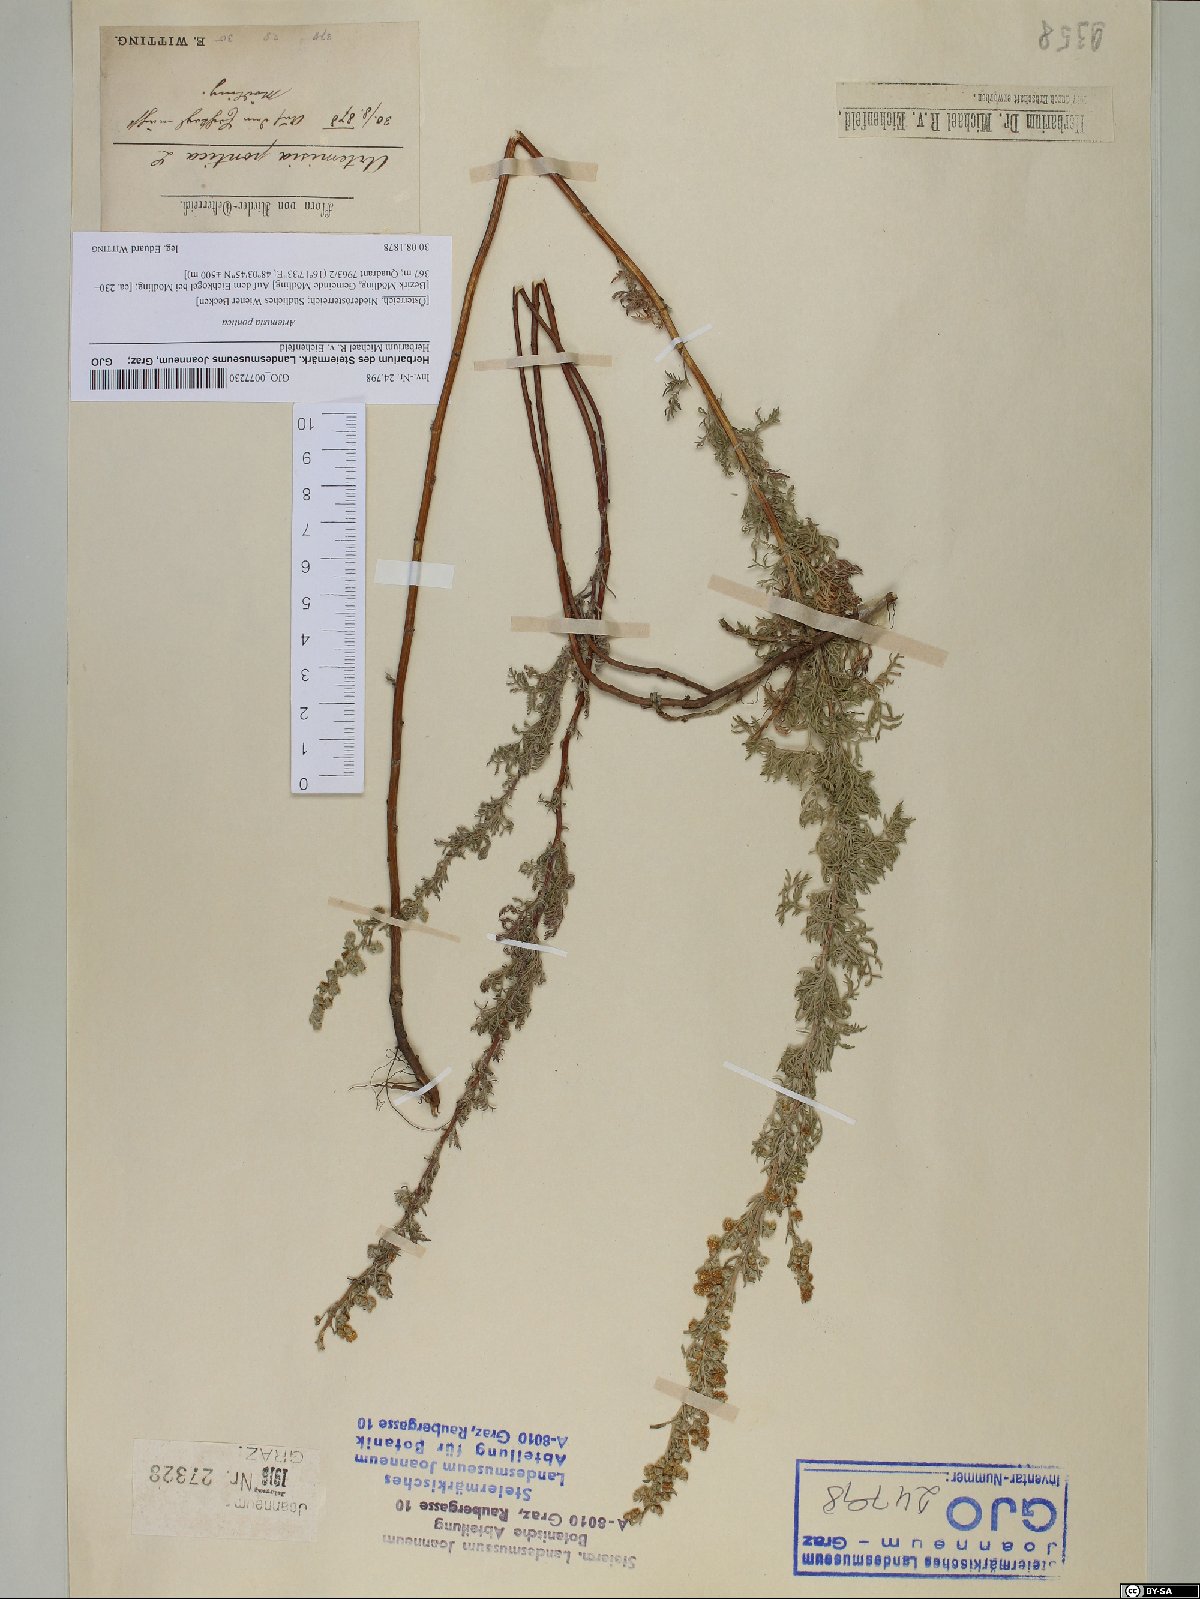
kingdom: Plantae
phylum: Tracheophyta
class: Magnoliopsida
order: Asterales
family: Asteraceae
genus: Artemisia
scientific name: Artemisia pontica
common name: Roman wormwood
